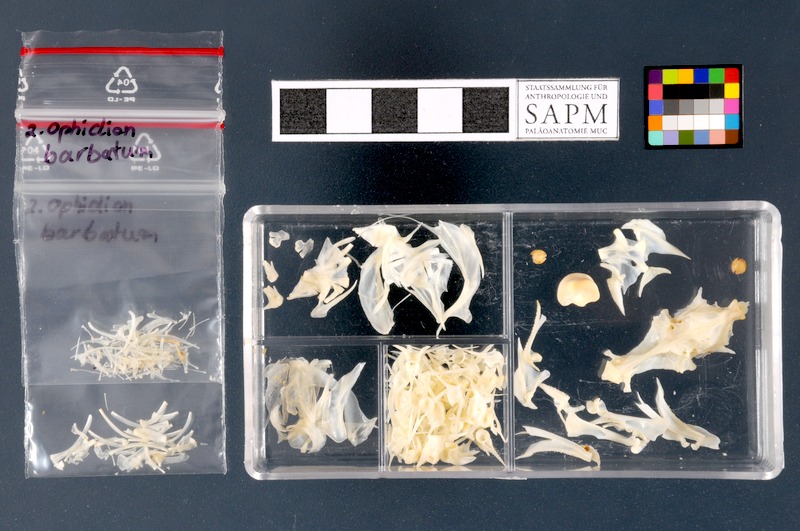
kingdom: Animalia
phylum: Chordata
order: Ophidiiformes
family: Ophidiidae
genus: Ophidion
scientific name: Ophidion barbatum
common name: Snake blenny
